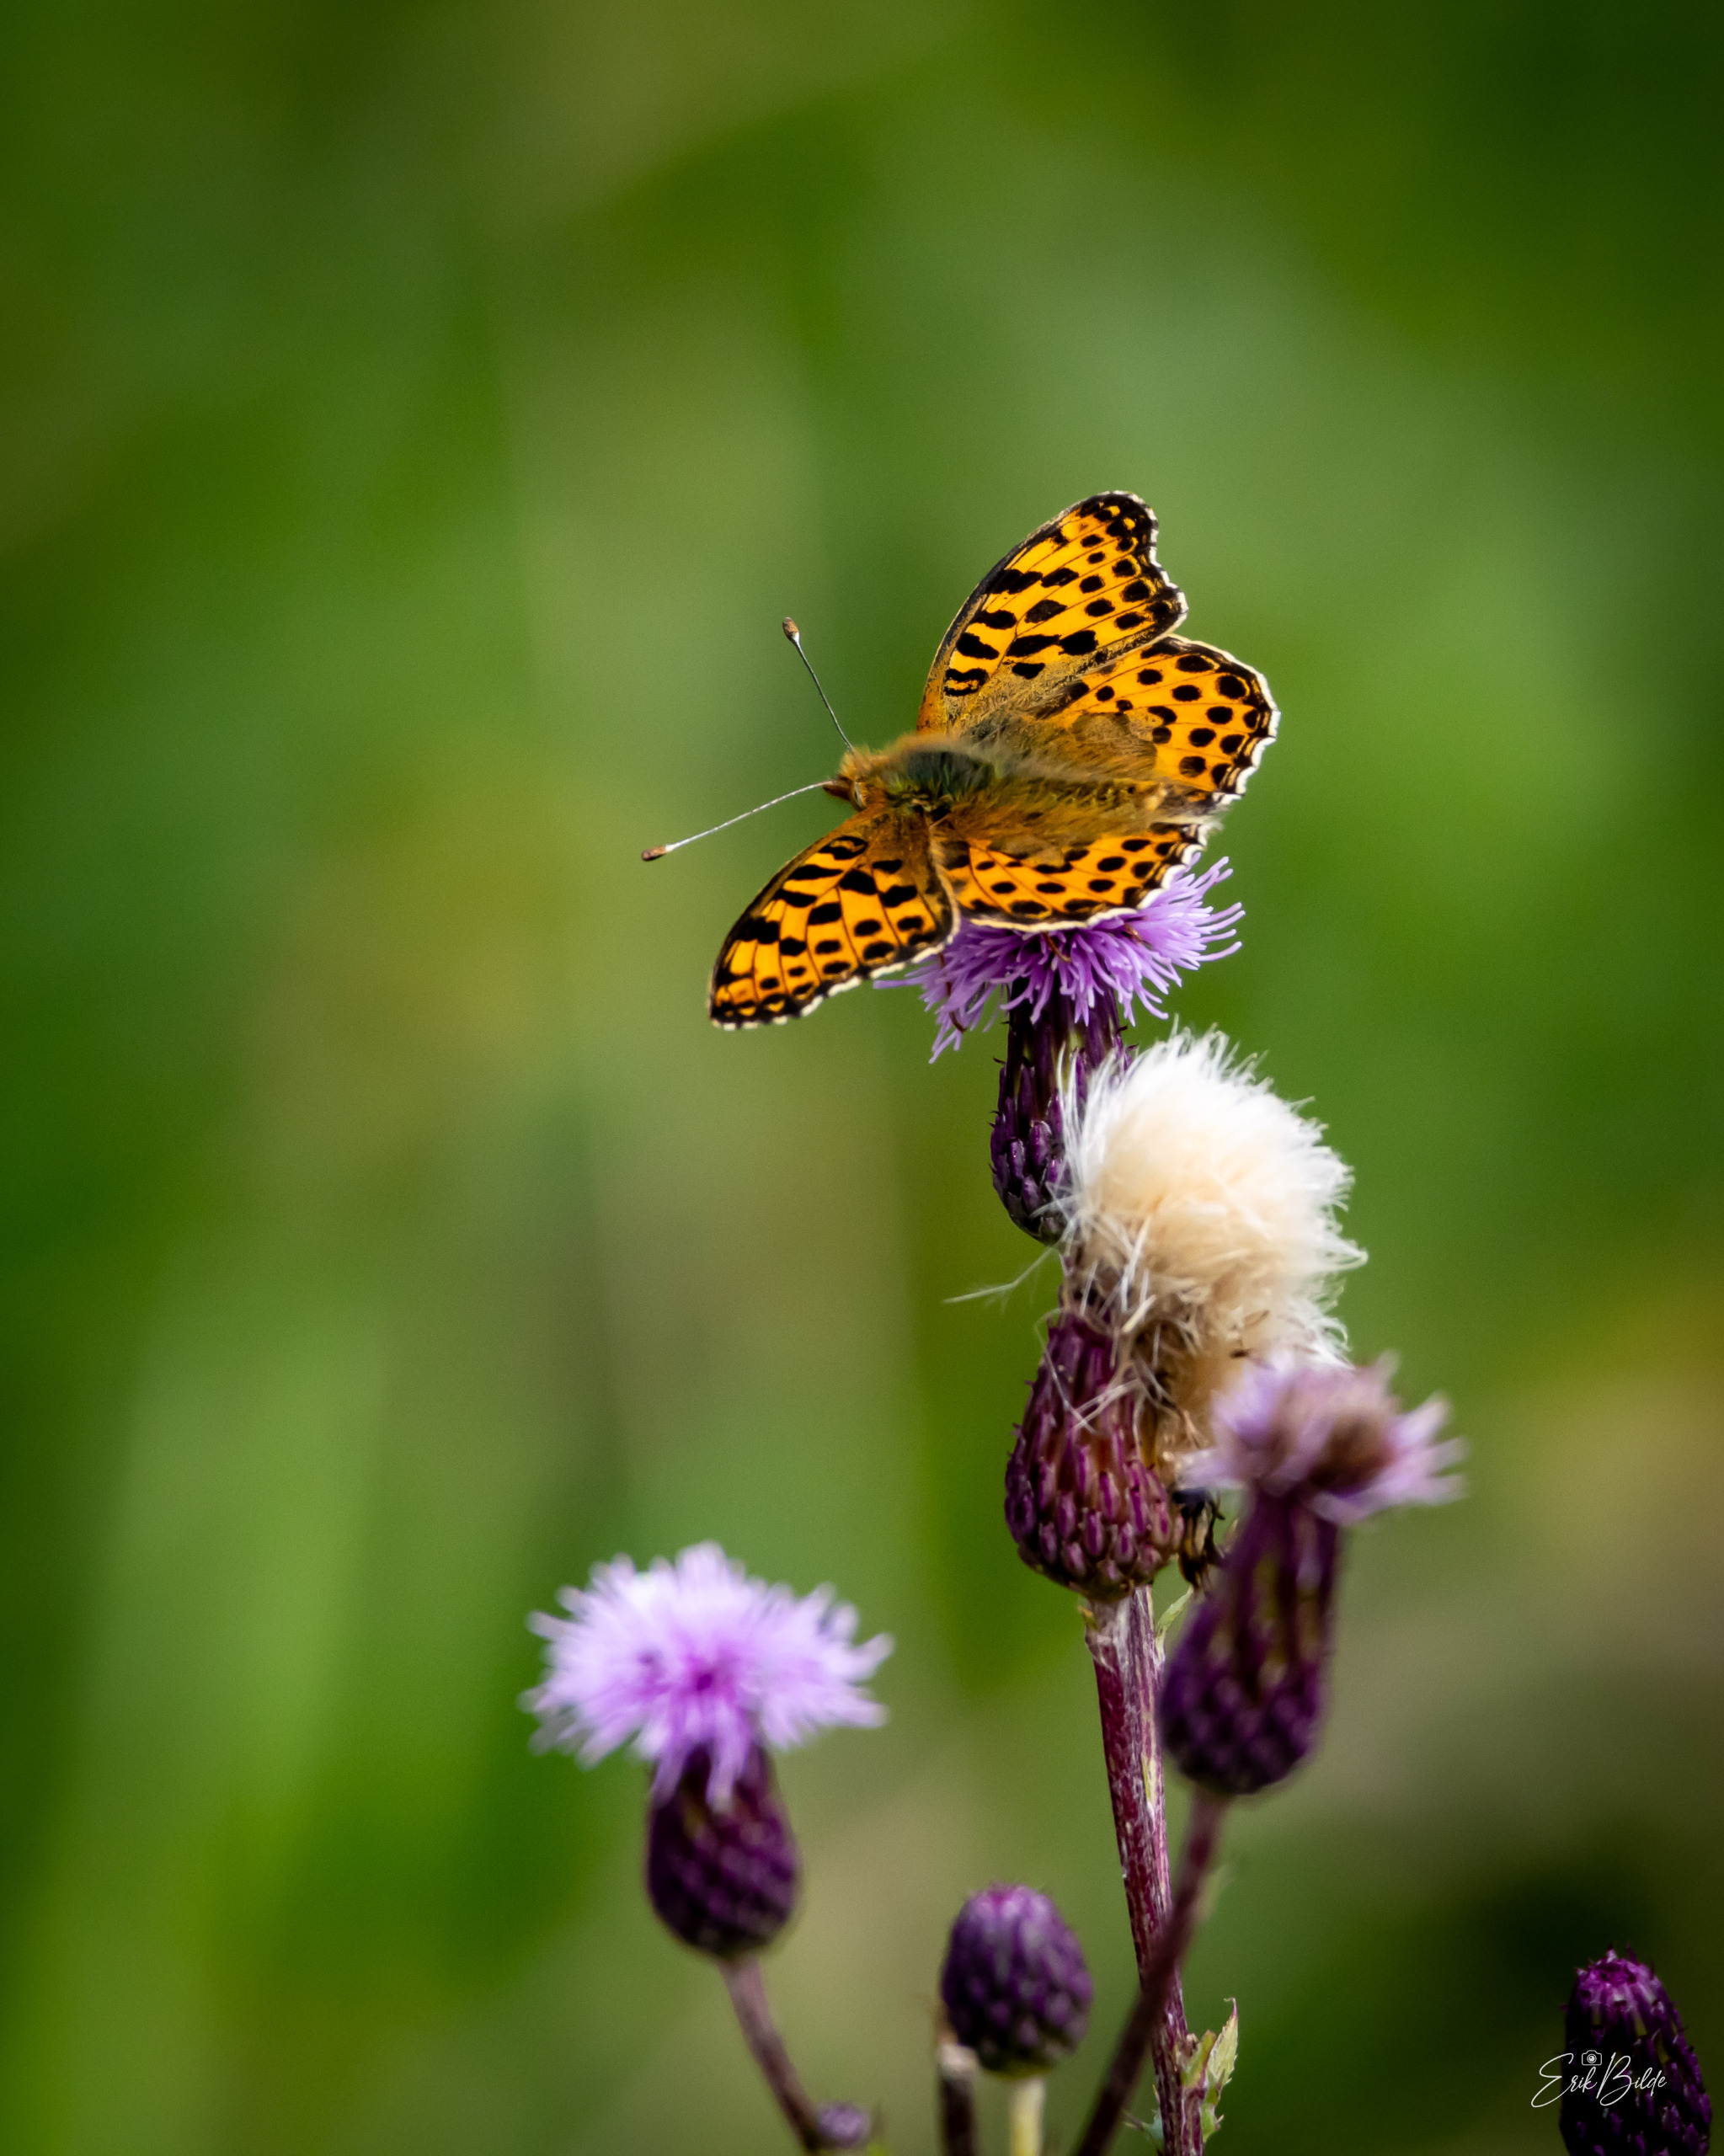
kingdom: Animalia
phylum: Arthropoda
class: Insecta
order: Lepidoptera
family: Nymphalidae
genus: Issoria
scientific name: Issoria lathonia
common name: Storplettet perlemorsommerfugl
